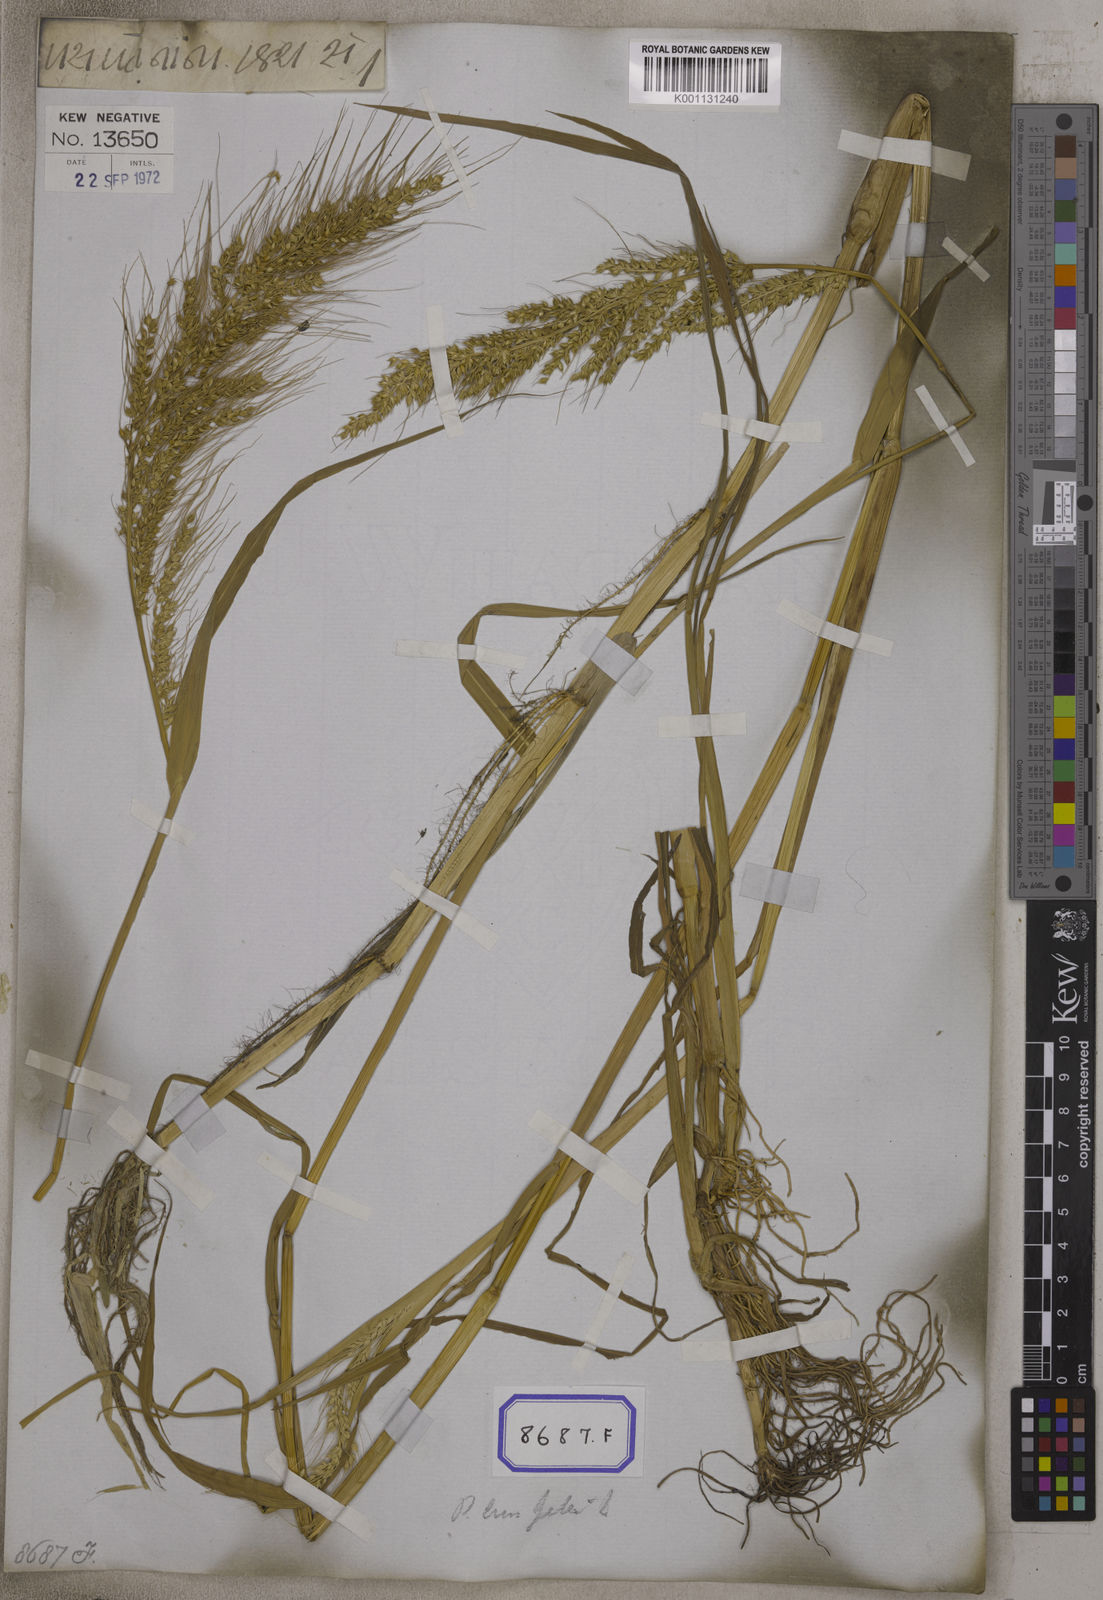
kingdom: Plantae
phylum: Tracheophyta
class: Liliopsida
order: Poales
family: Poaceae
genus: Echinochloa
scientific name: Echinochloa crus-galli
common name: Cockspur
